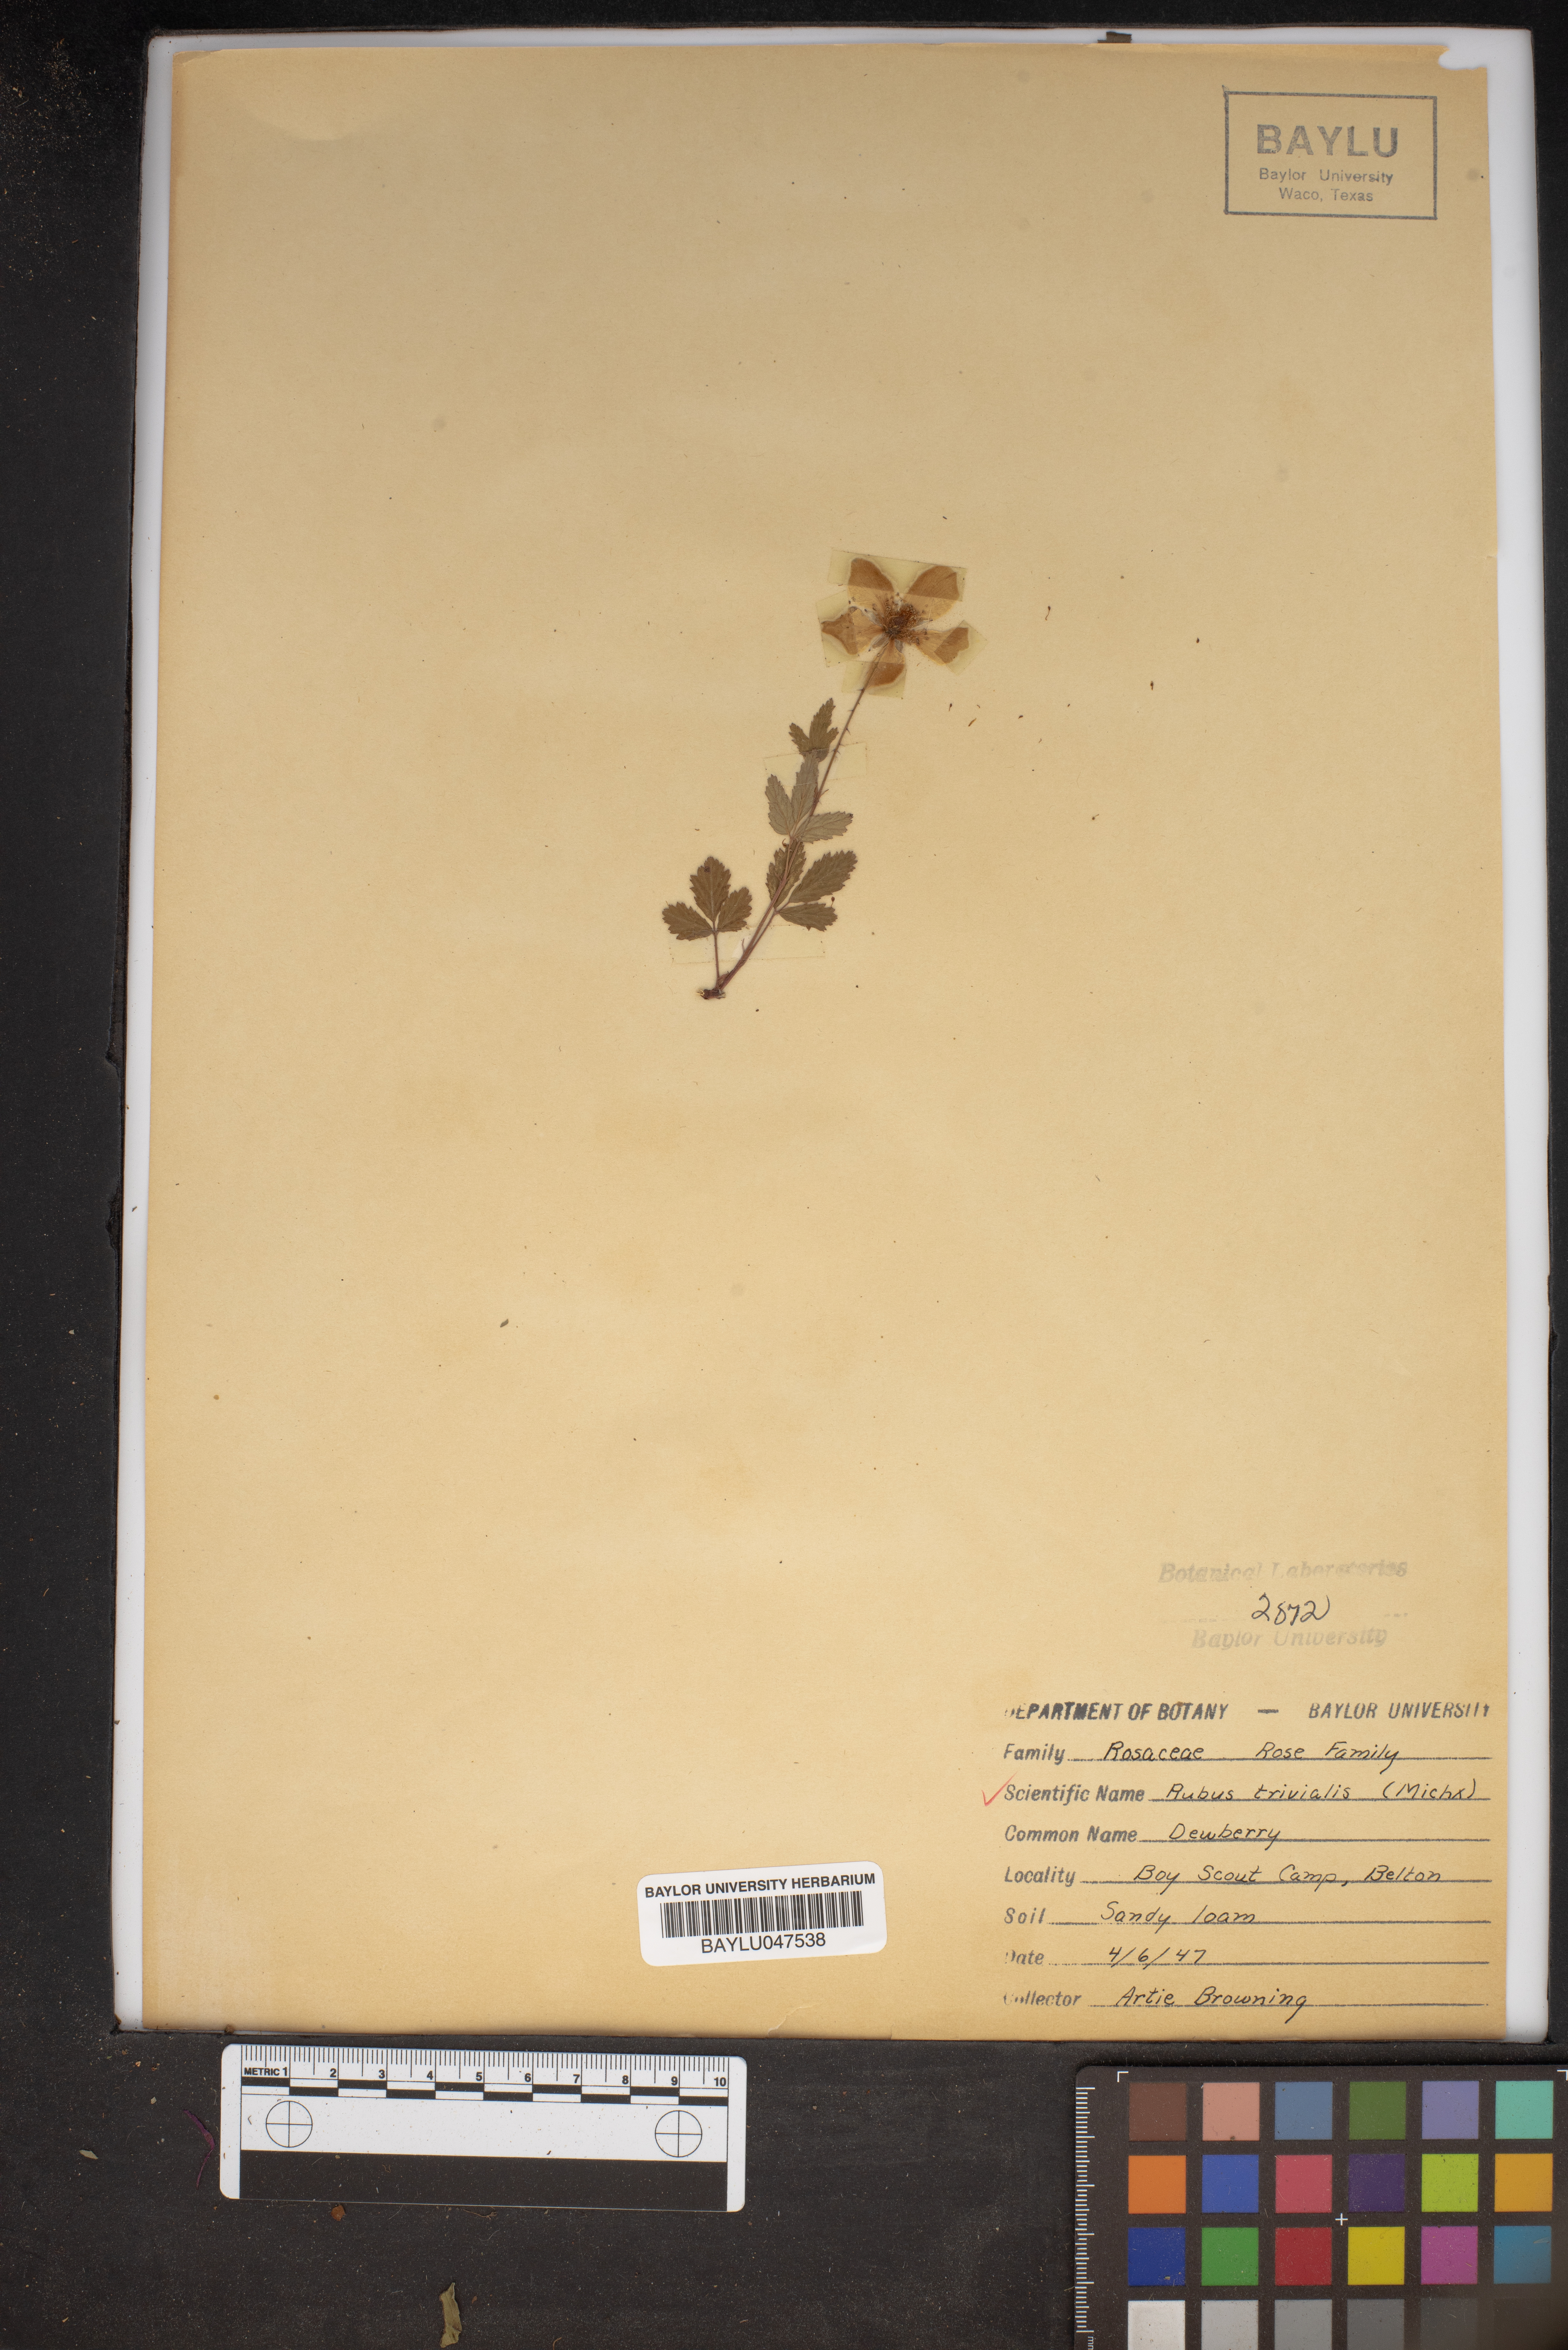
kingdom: Plantae
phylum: Tracheophyta
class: Magnoliopsida
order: Rosales
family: Rosaceae
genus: Rubus
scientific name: Rubus trivialis
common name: Southern dewberry
